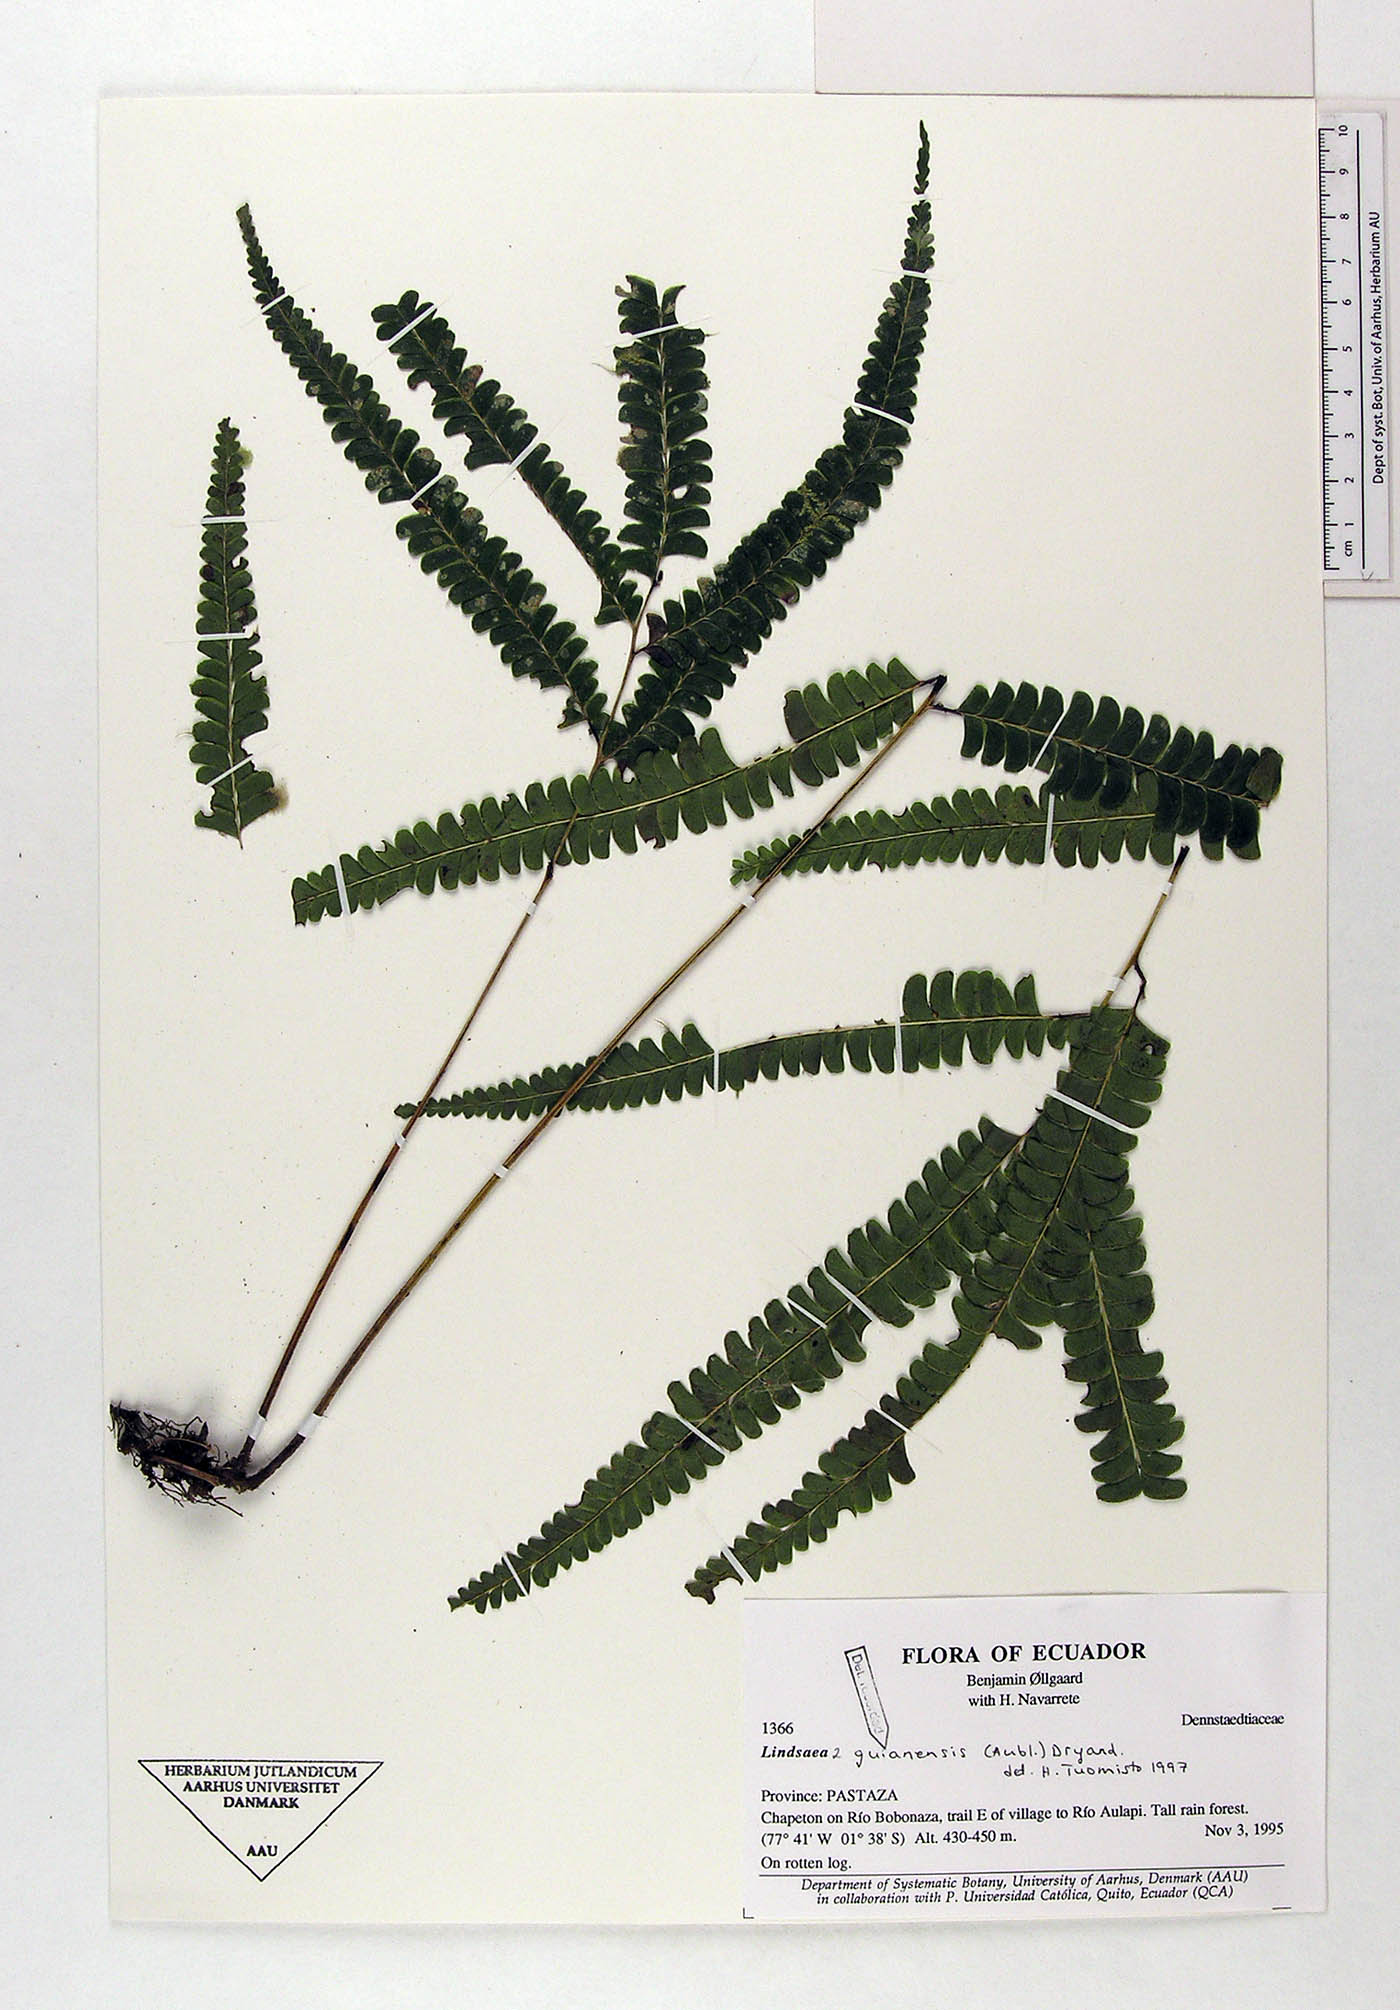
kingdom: Plantae
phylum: Tracheophyta
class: Polypodiopsida
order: Polypodiales
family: Lindsaeaceae
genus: Lindsaea
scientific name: Lindsaea guianensis
